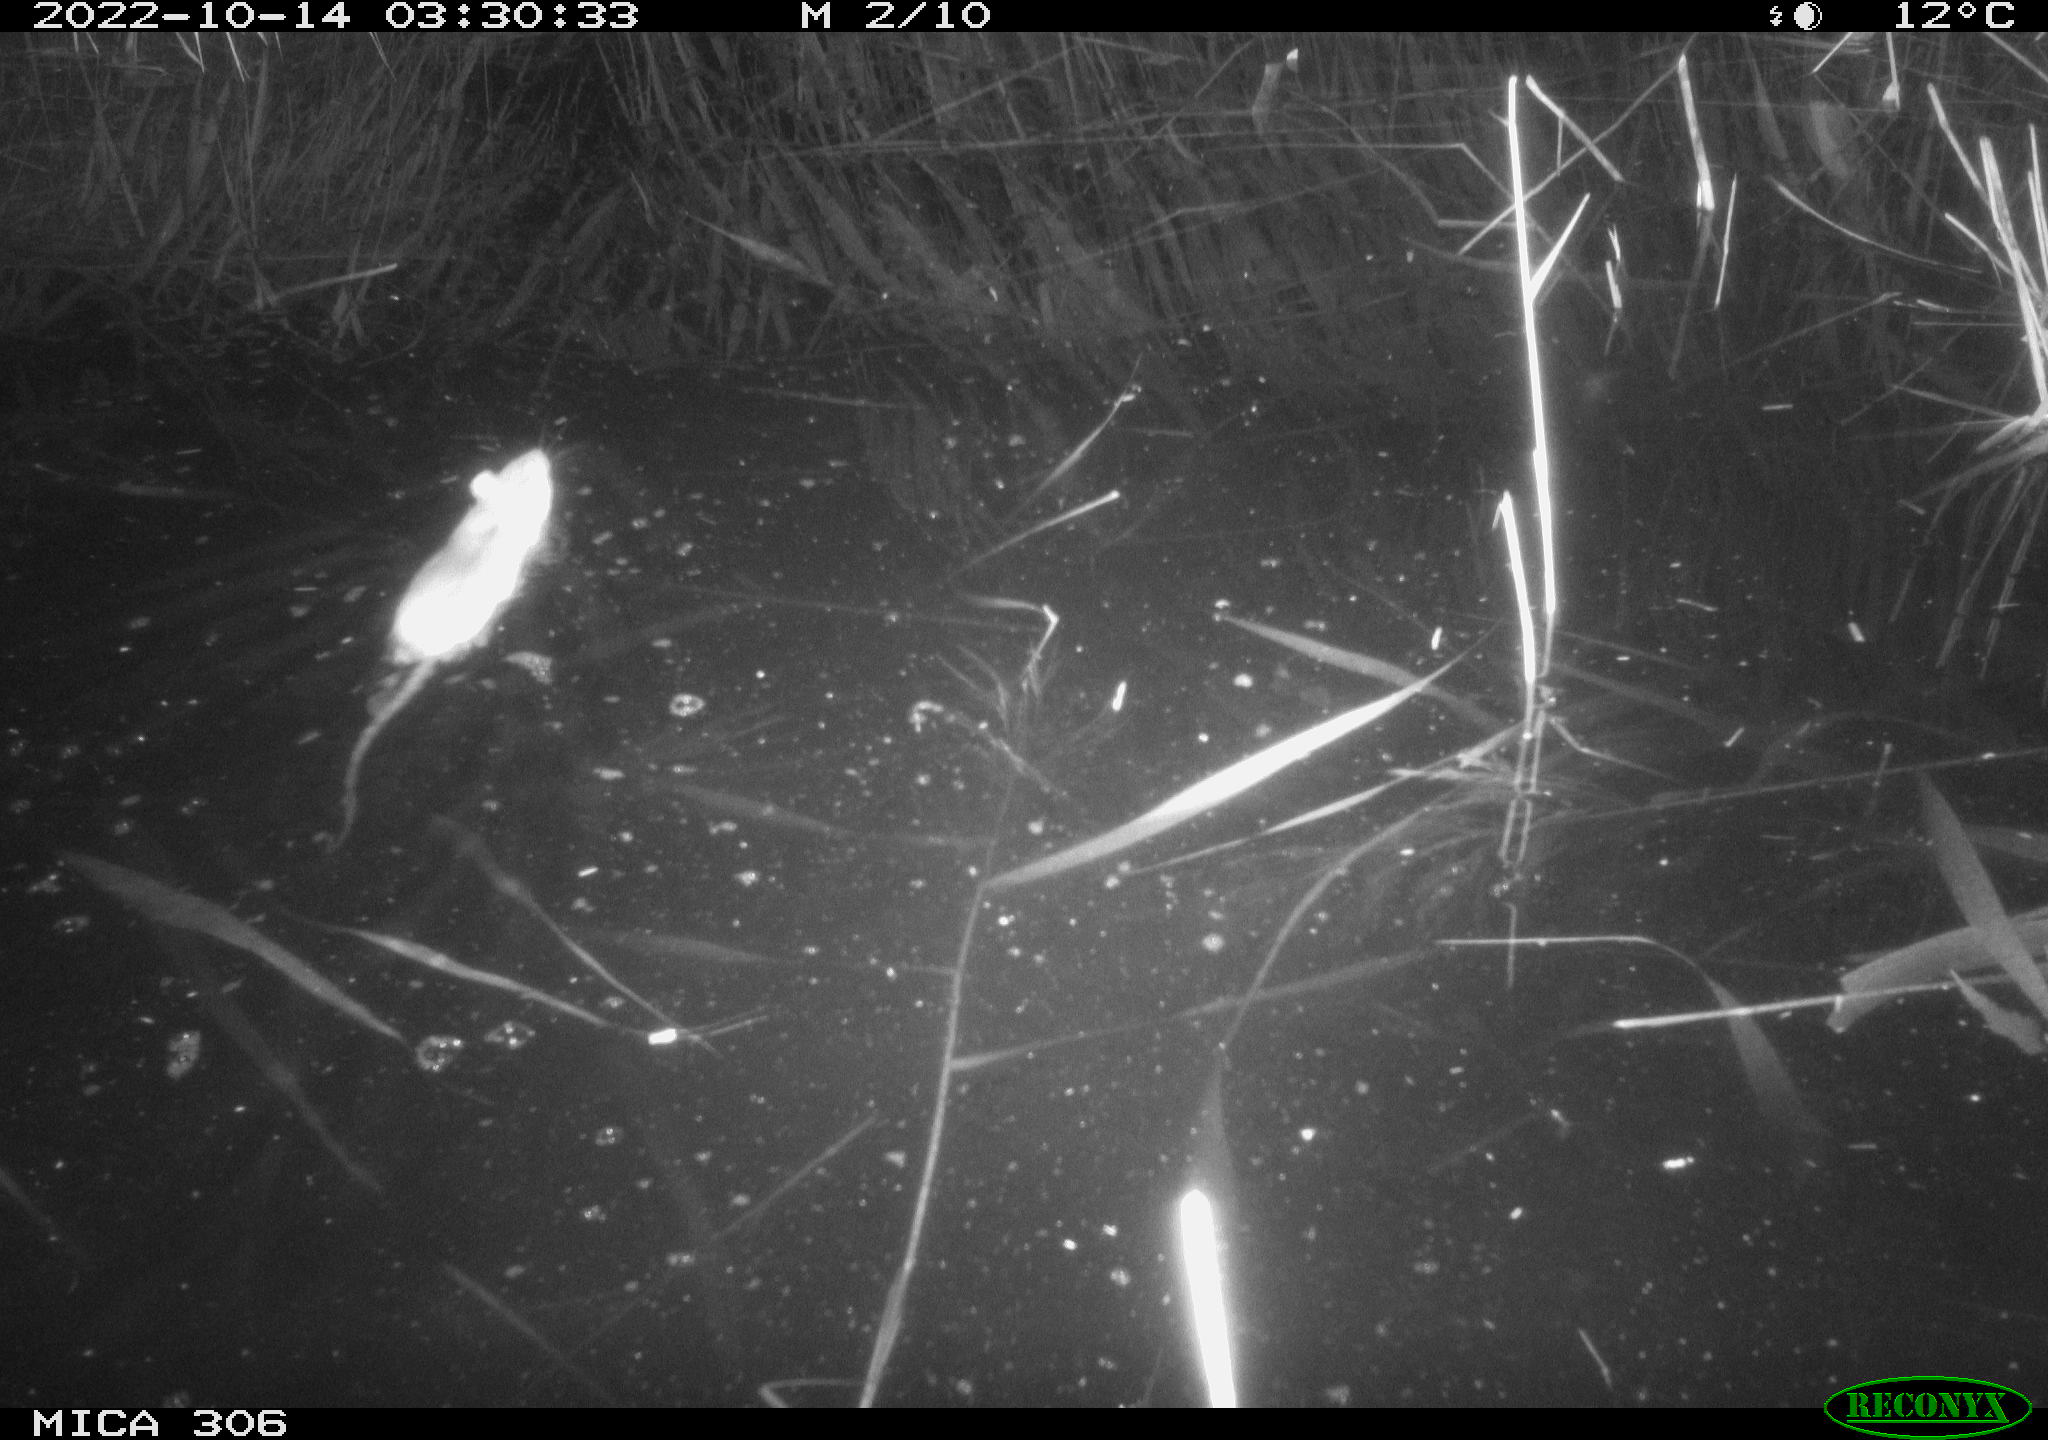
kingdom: Animalia
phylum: Chordata
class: Mammalia
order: Rodentia
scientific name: Rodentia
